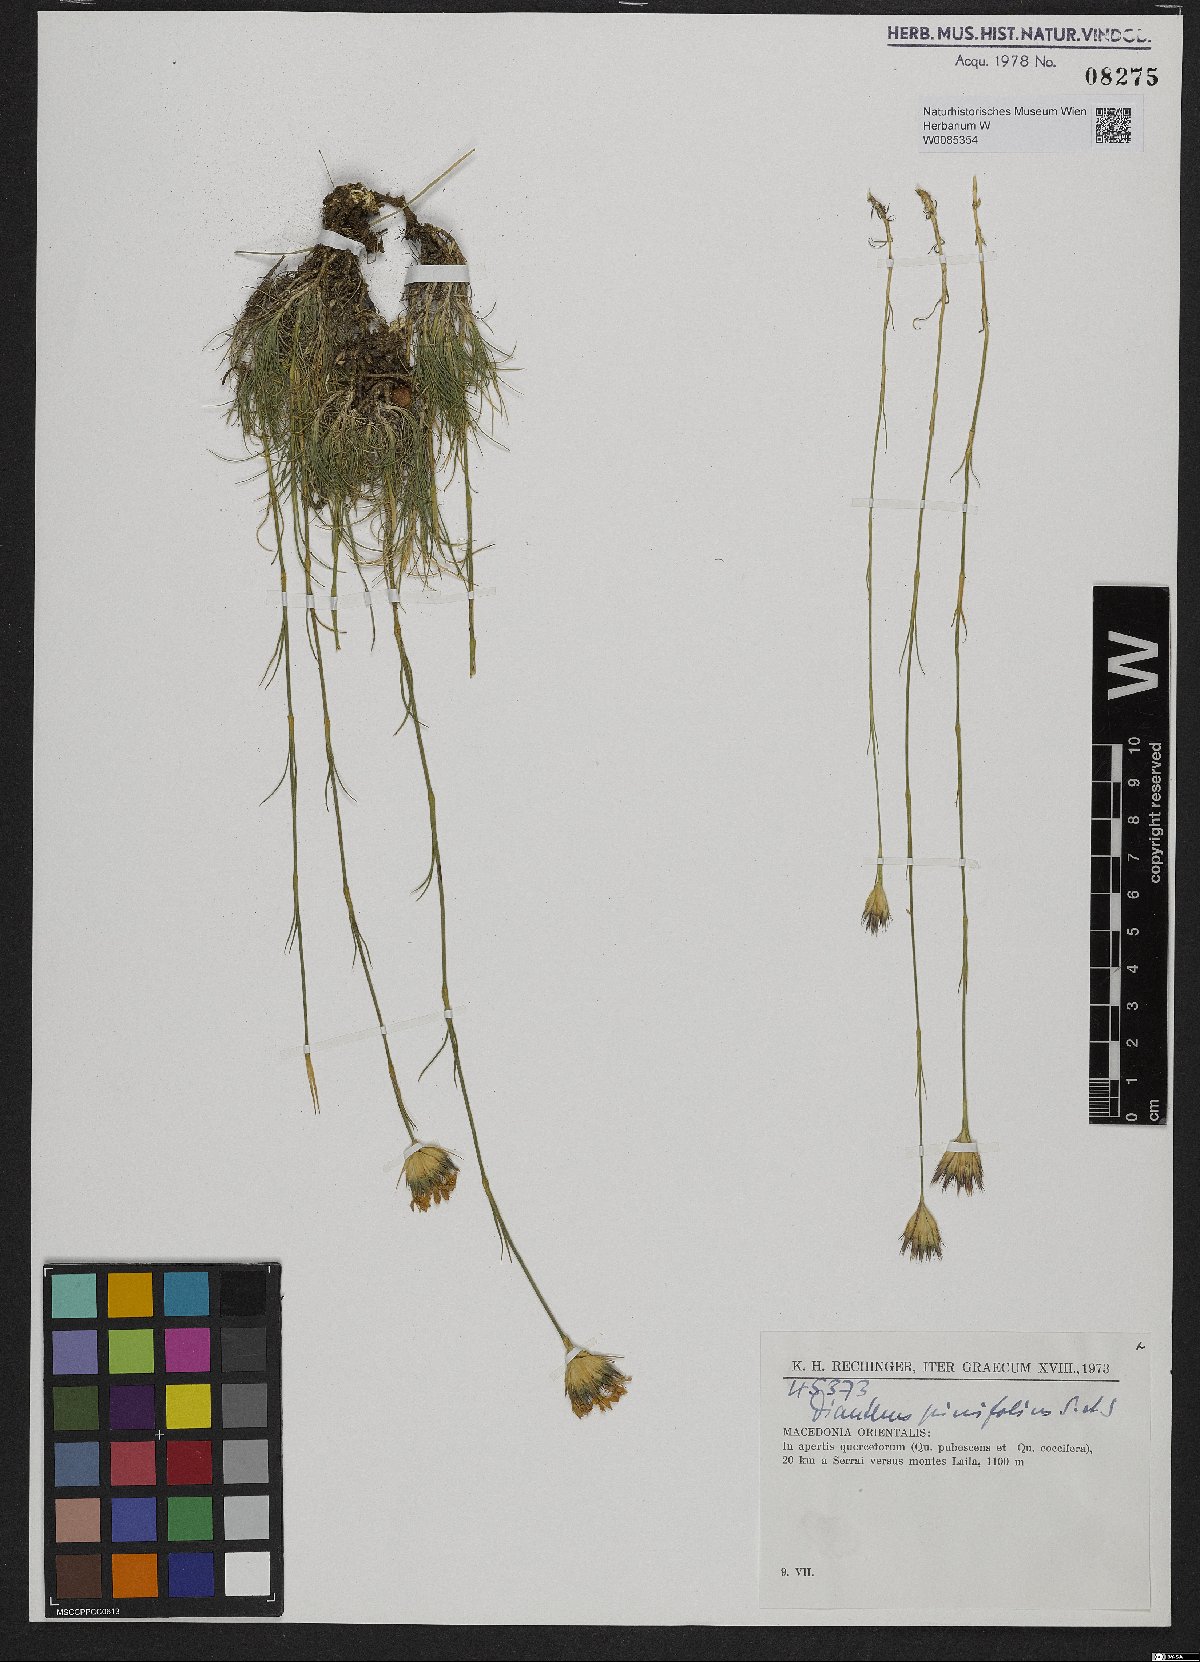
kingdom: Plantae
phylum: Tracheophyta
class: Magnoliopsida
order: Caryophyllales
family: Caryophyllaceae
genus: Dianthus
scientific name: Dianthus pinifolius
